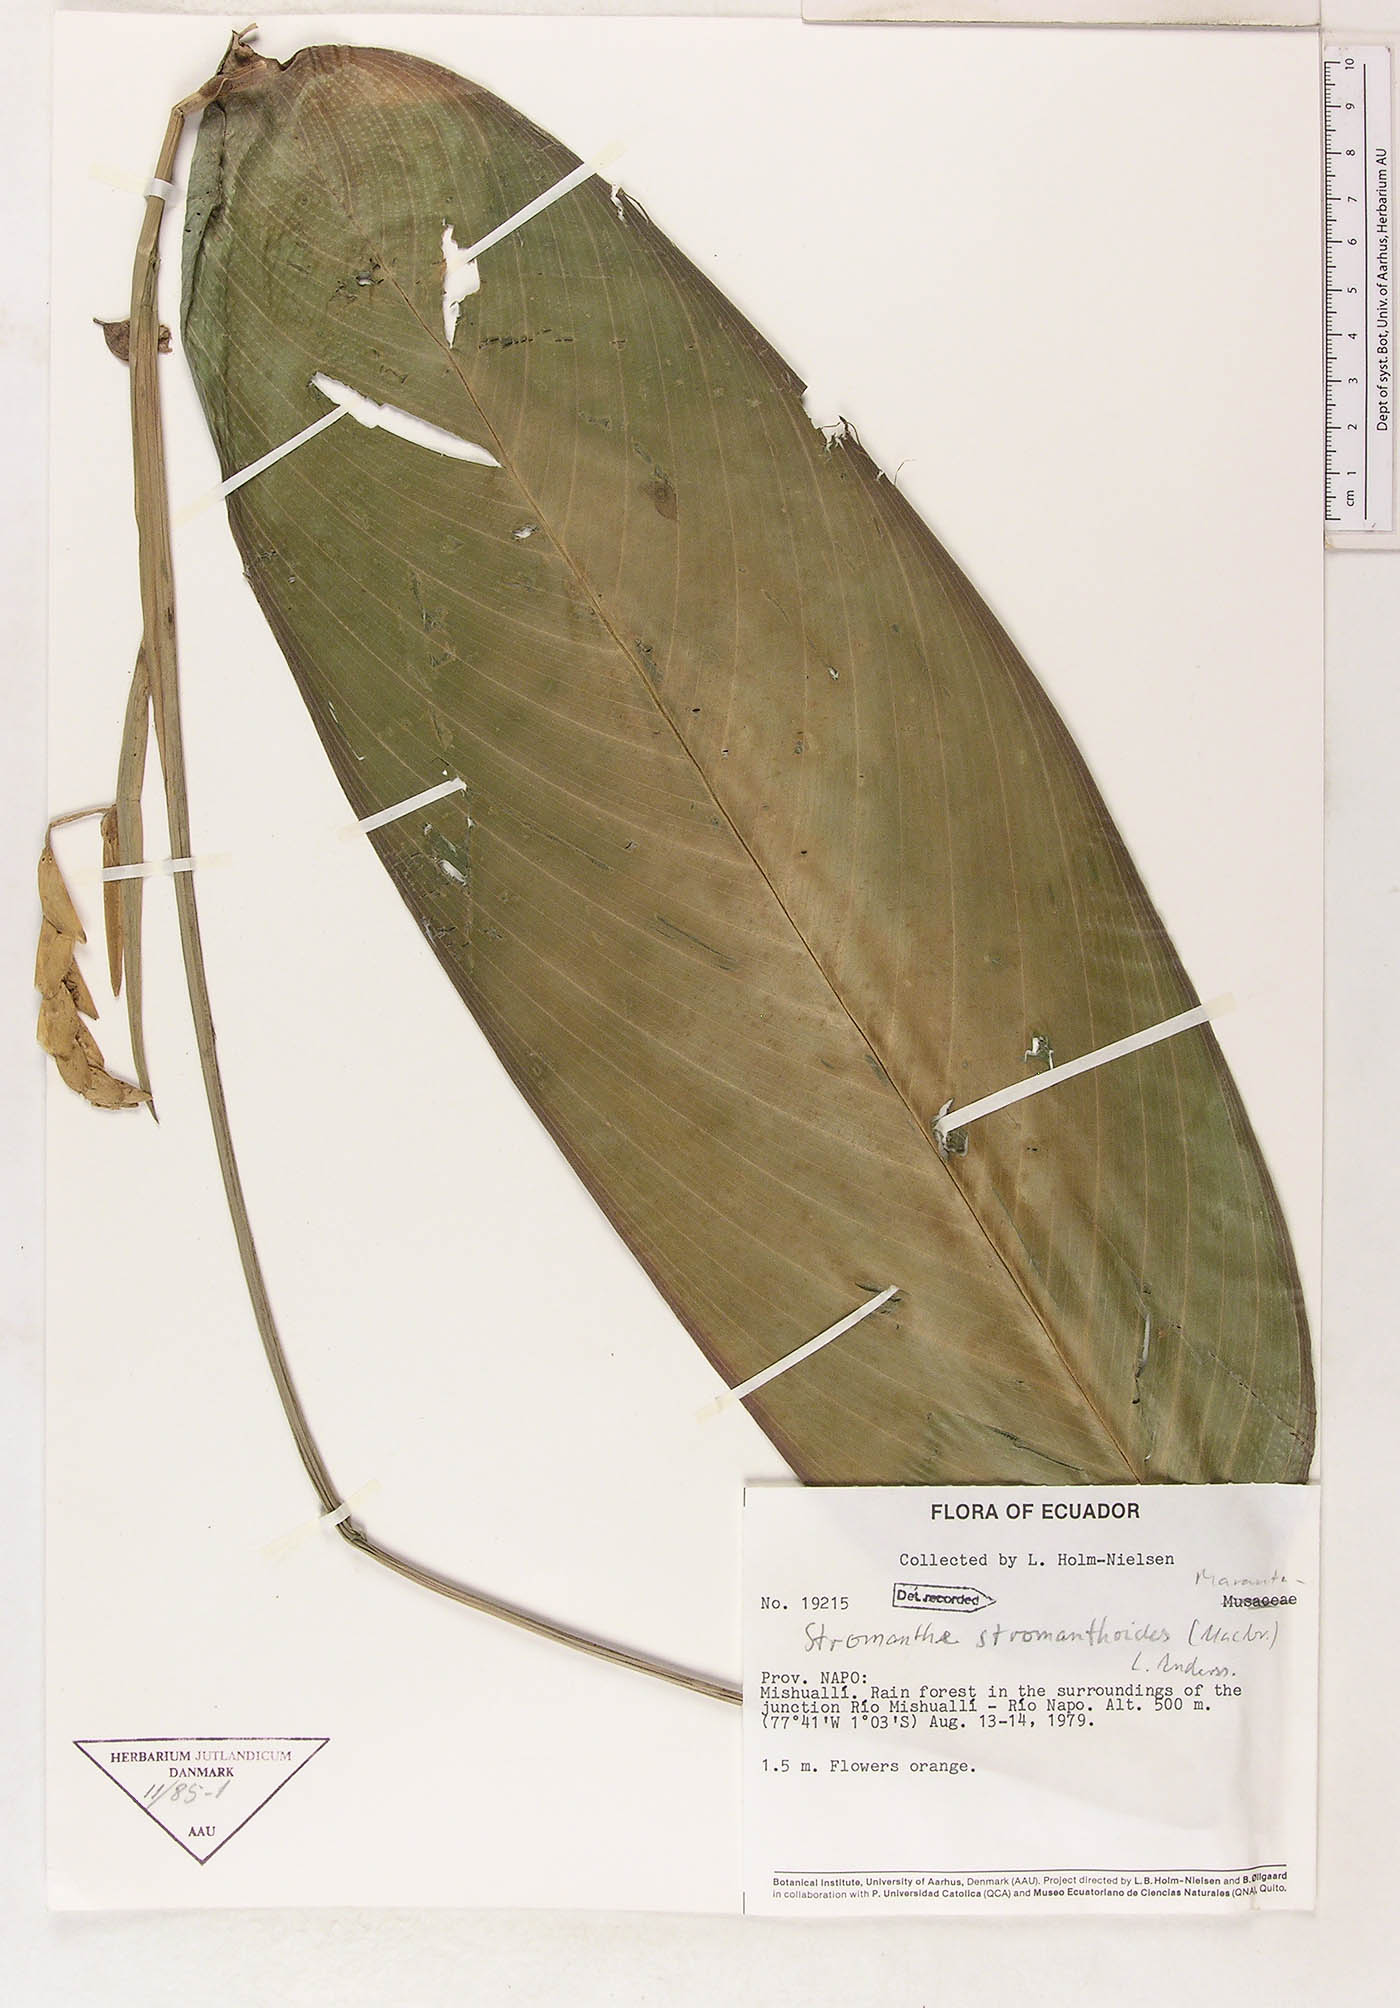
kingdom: Plantae
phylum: Tracheophyta
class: Liliopsida
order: Zingiberales
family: Marantaceae
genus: Stromanthe
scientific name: Stromanthe stromanthoides
